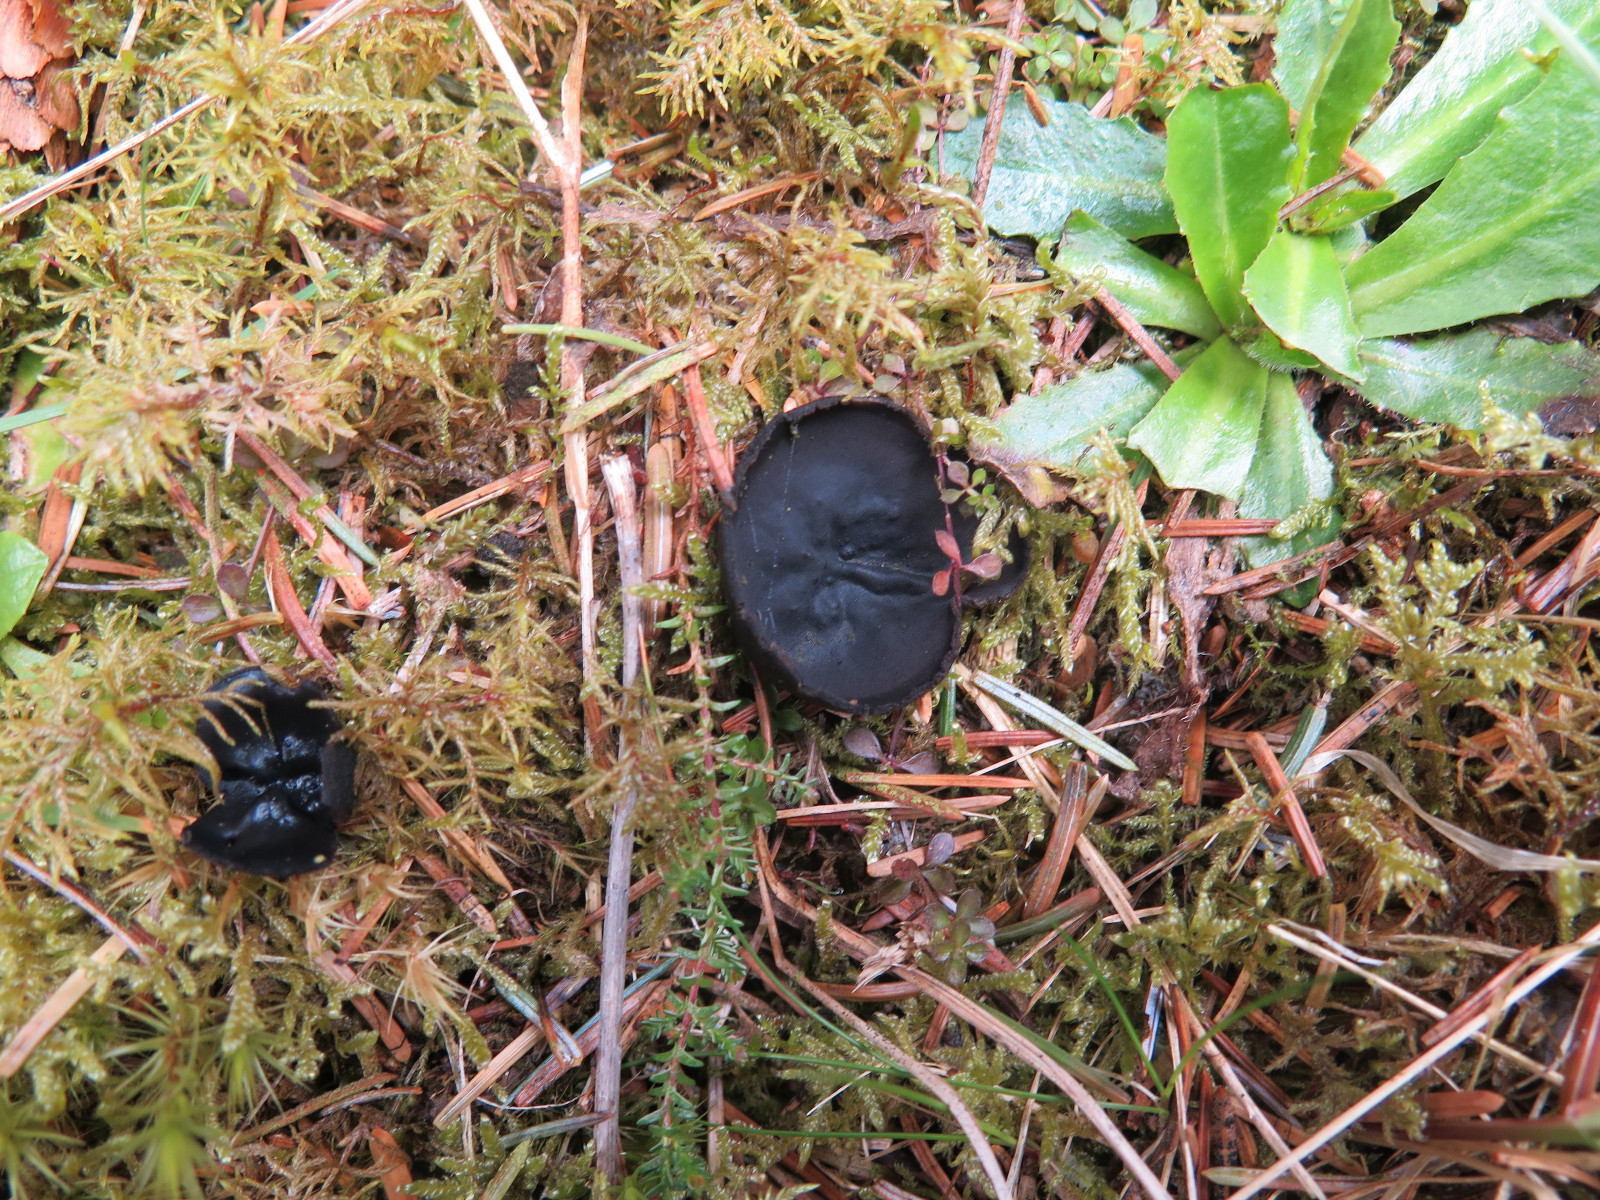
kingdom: Fungi
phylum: Ascomycota
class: Pezizomycetes
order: Pezizales
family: Sarcosomataceae
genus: Pseudoplectania
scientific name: Pseudoplectania nigrella
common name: almindelig sortbæger
